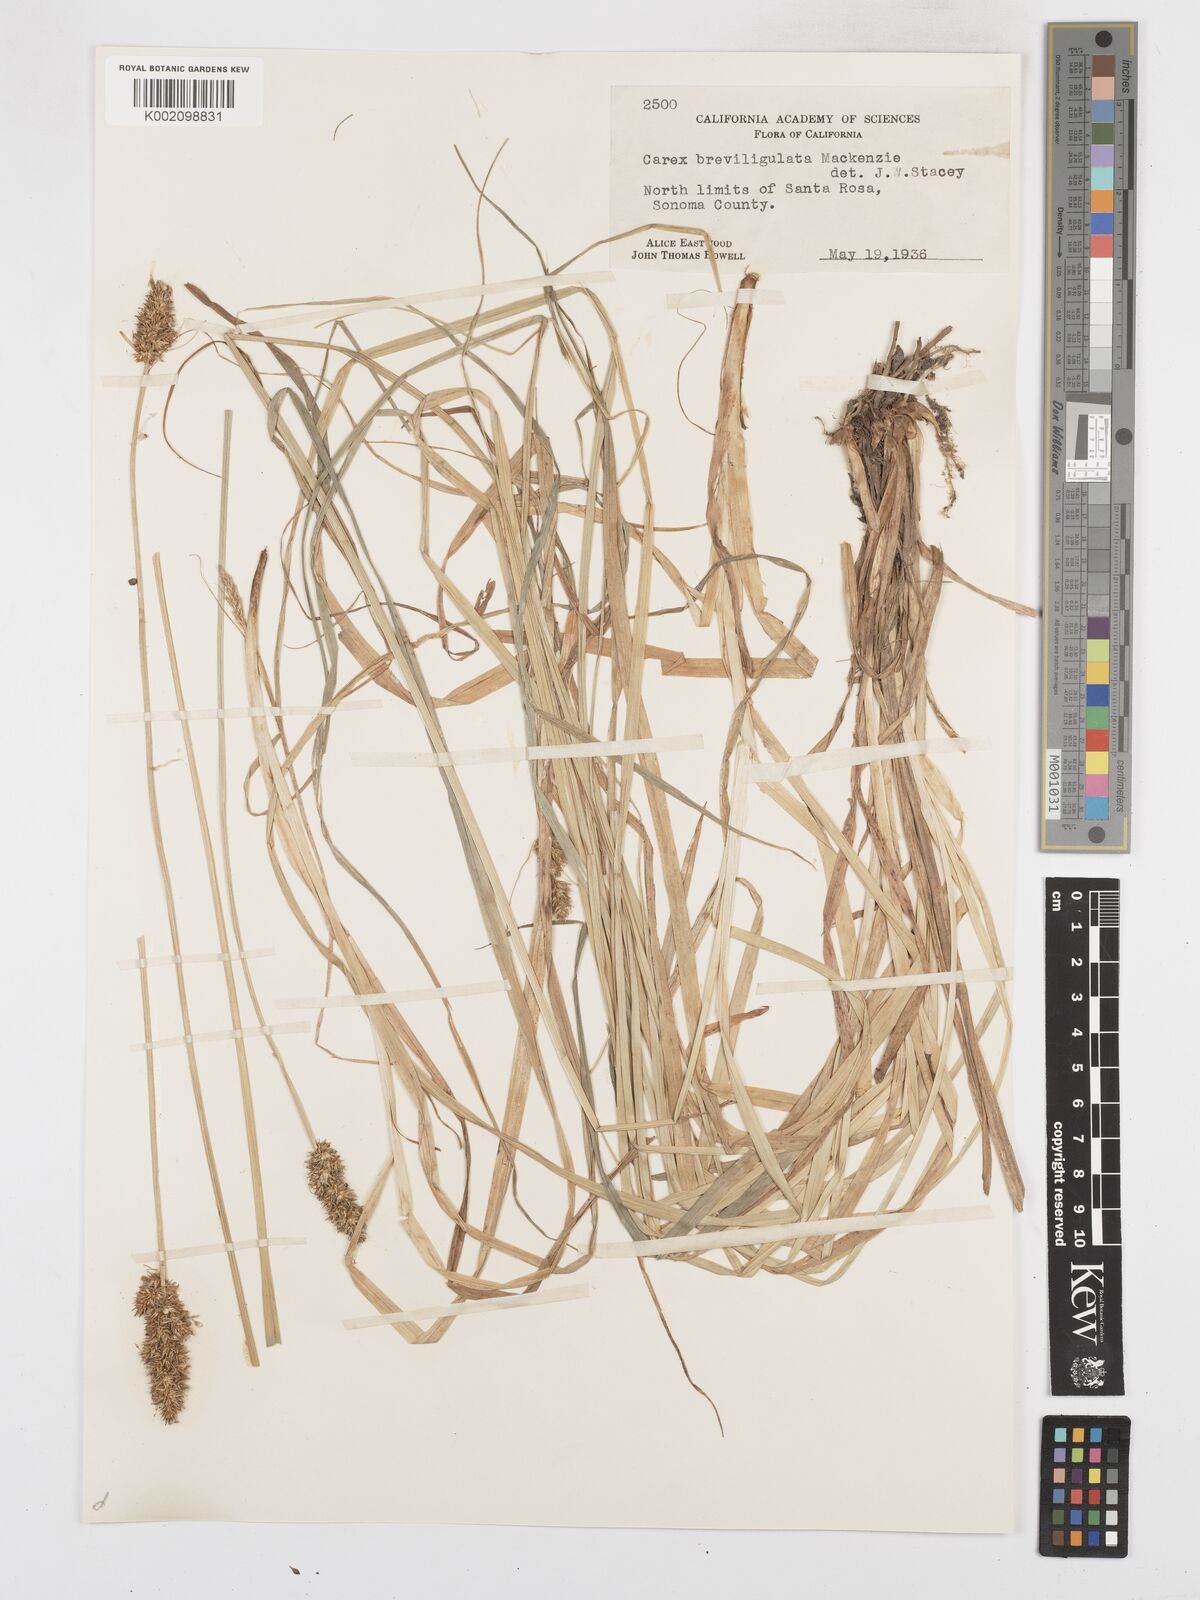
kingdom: Plantae
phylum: Tracheophyta
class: Liliopsida
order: Poales
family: Cyperaceae
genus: Carex
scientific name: Carex densa
